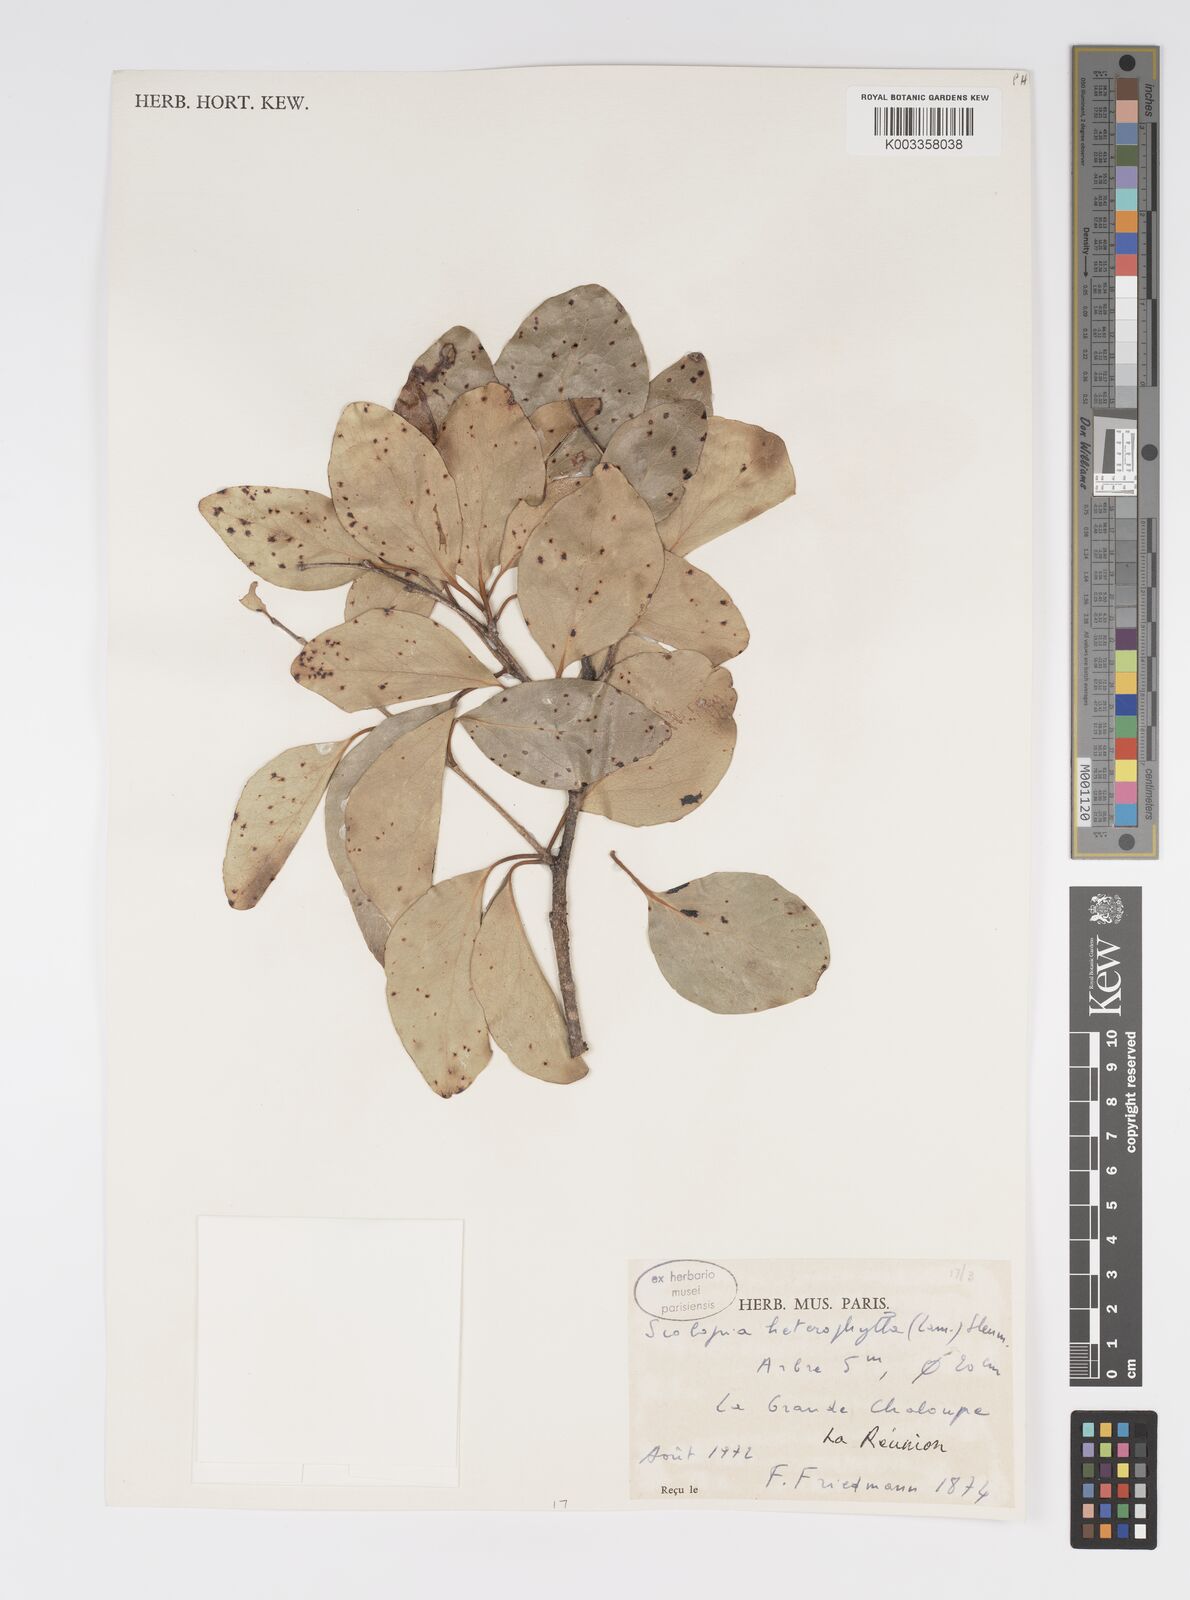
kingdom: Plantae
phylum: Tracheophyta
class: Magnoliopsida
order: Malpighiales
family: Salicaceae
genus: Scolopia
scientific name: Scolopia heterophylla
